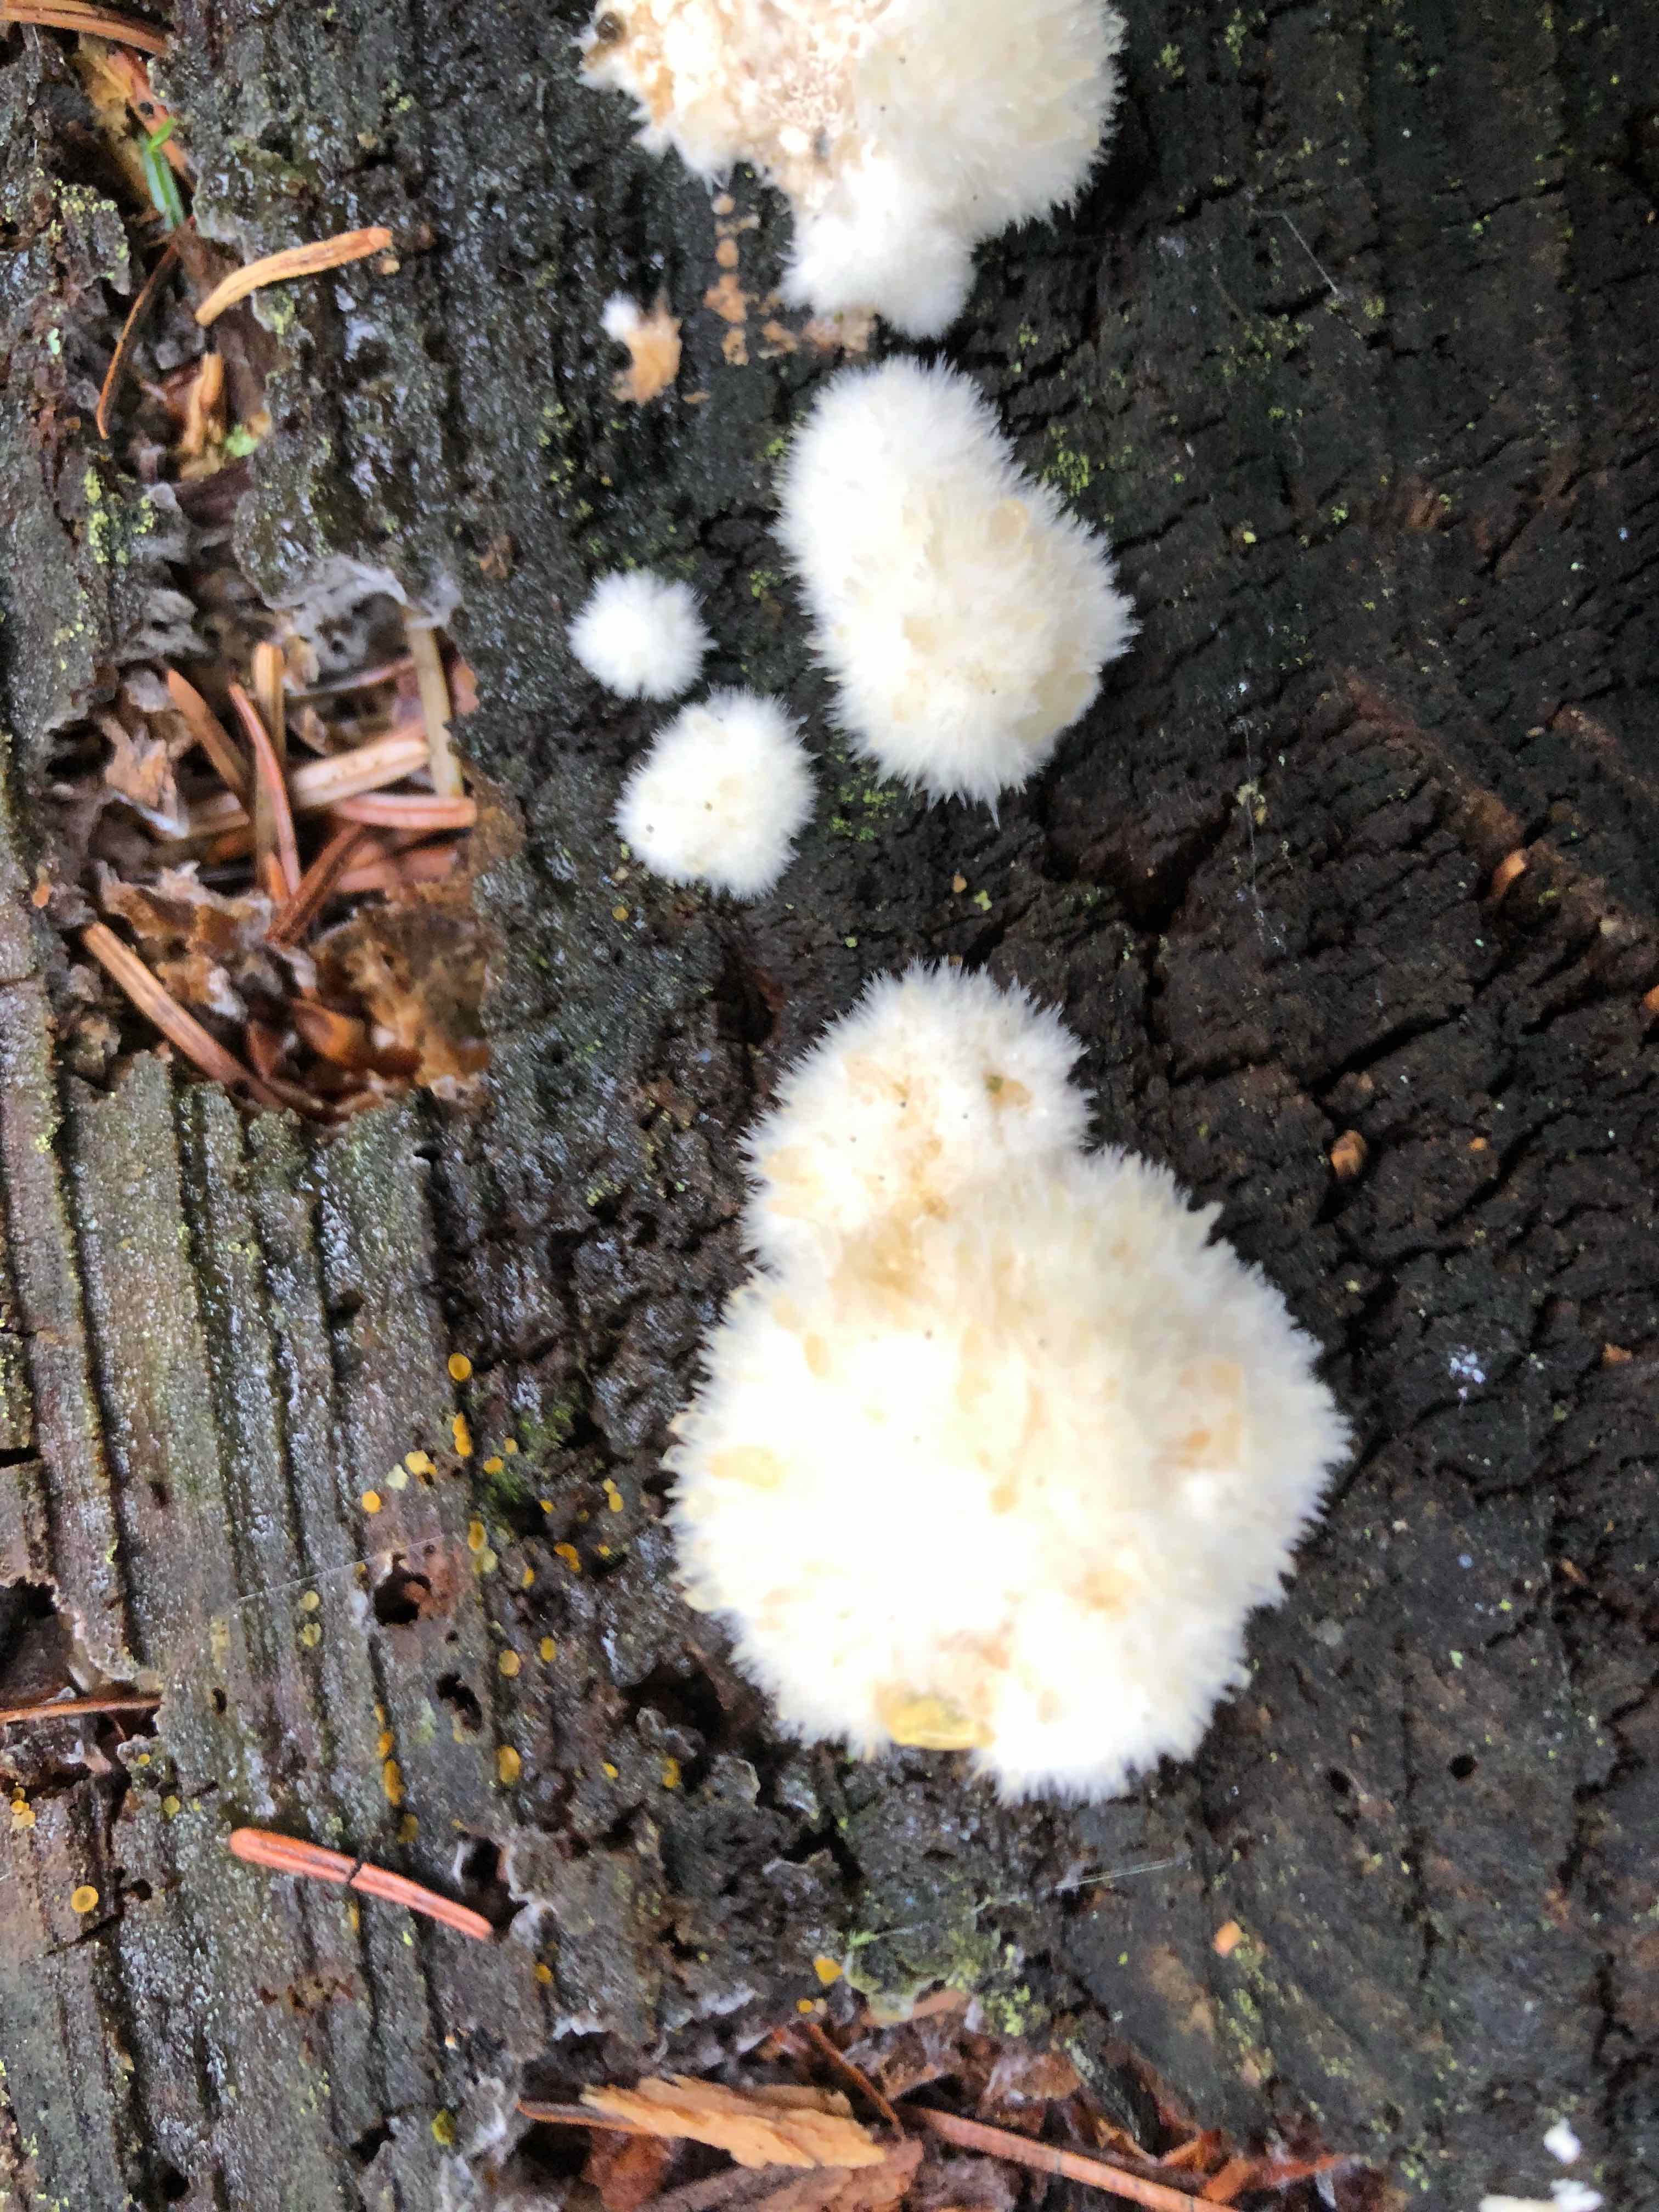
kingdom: Fungi
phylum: Basidiomycota
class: Agaricomycetes
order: Polyporales
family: Dacryobolaceae
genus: Postia
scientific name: Postia ptychogaster
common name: støvende kødporesvamp
